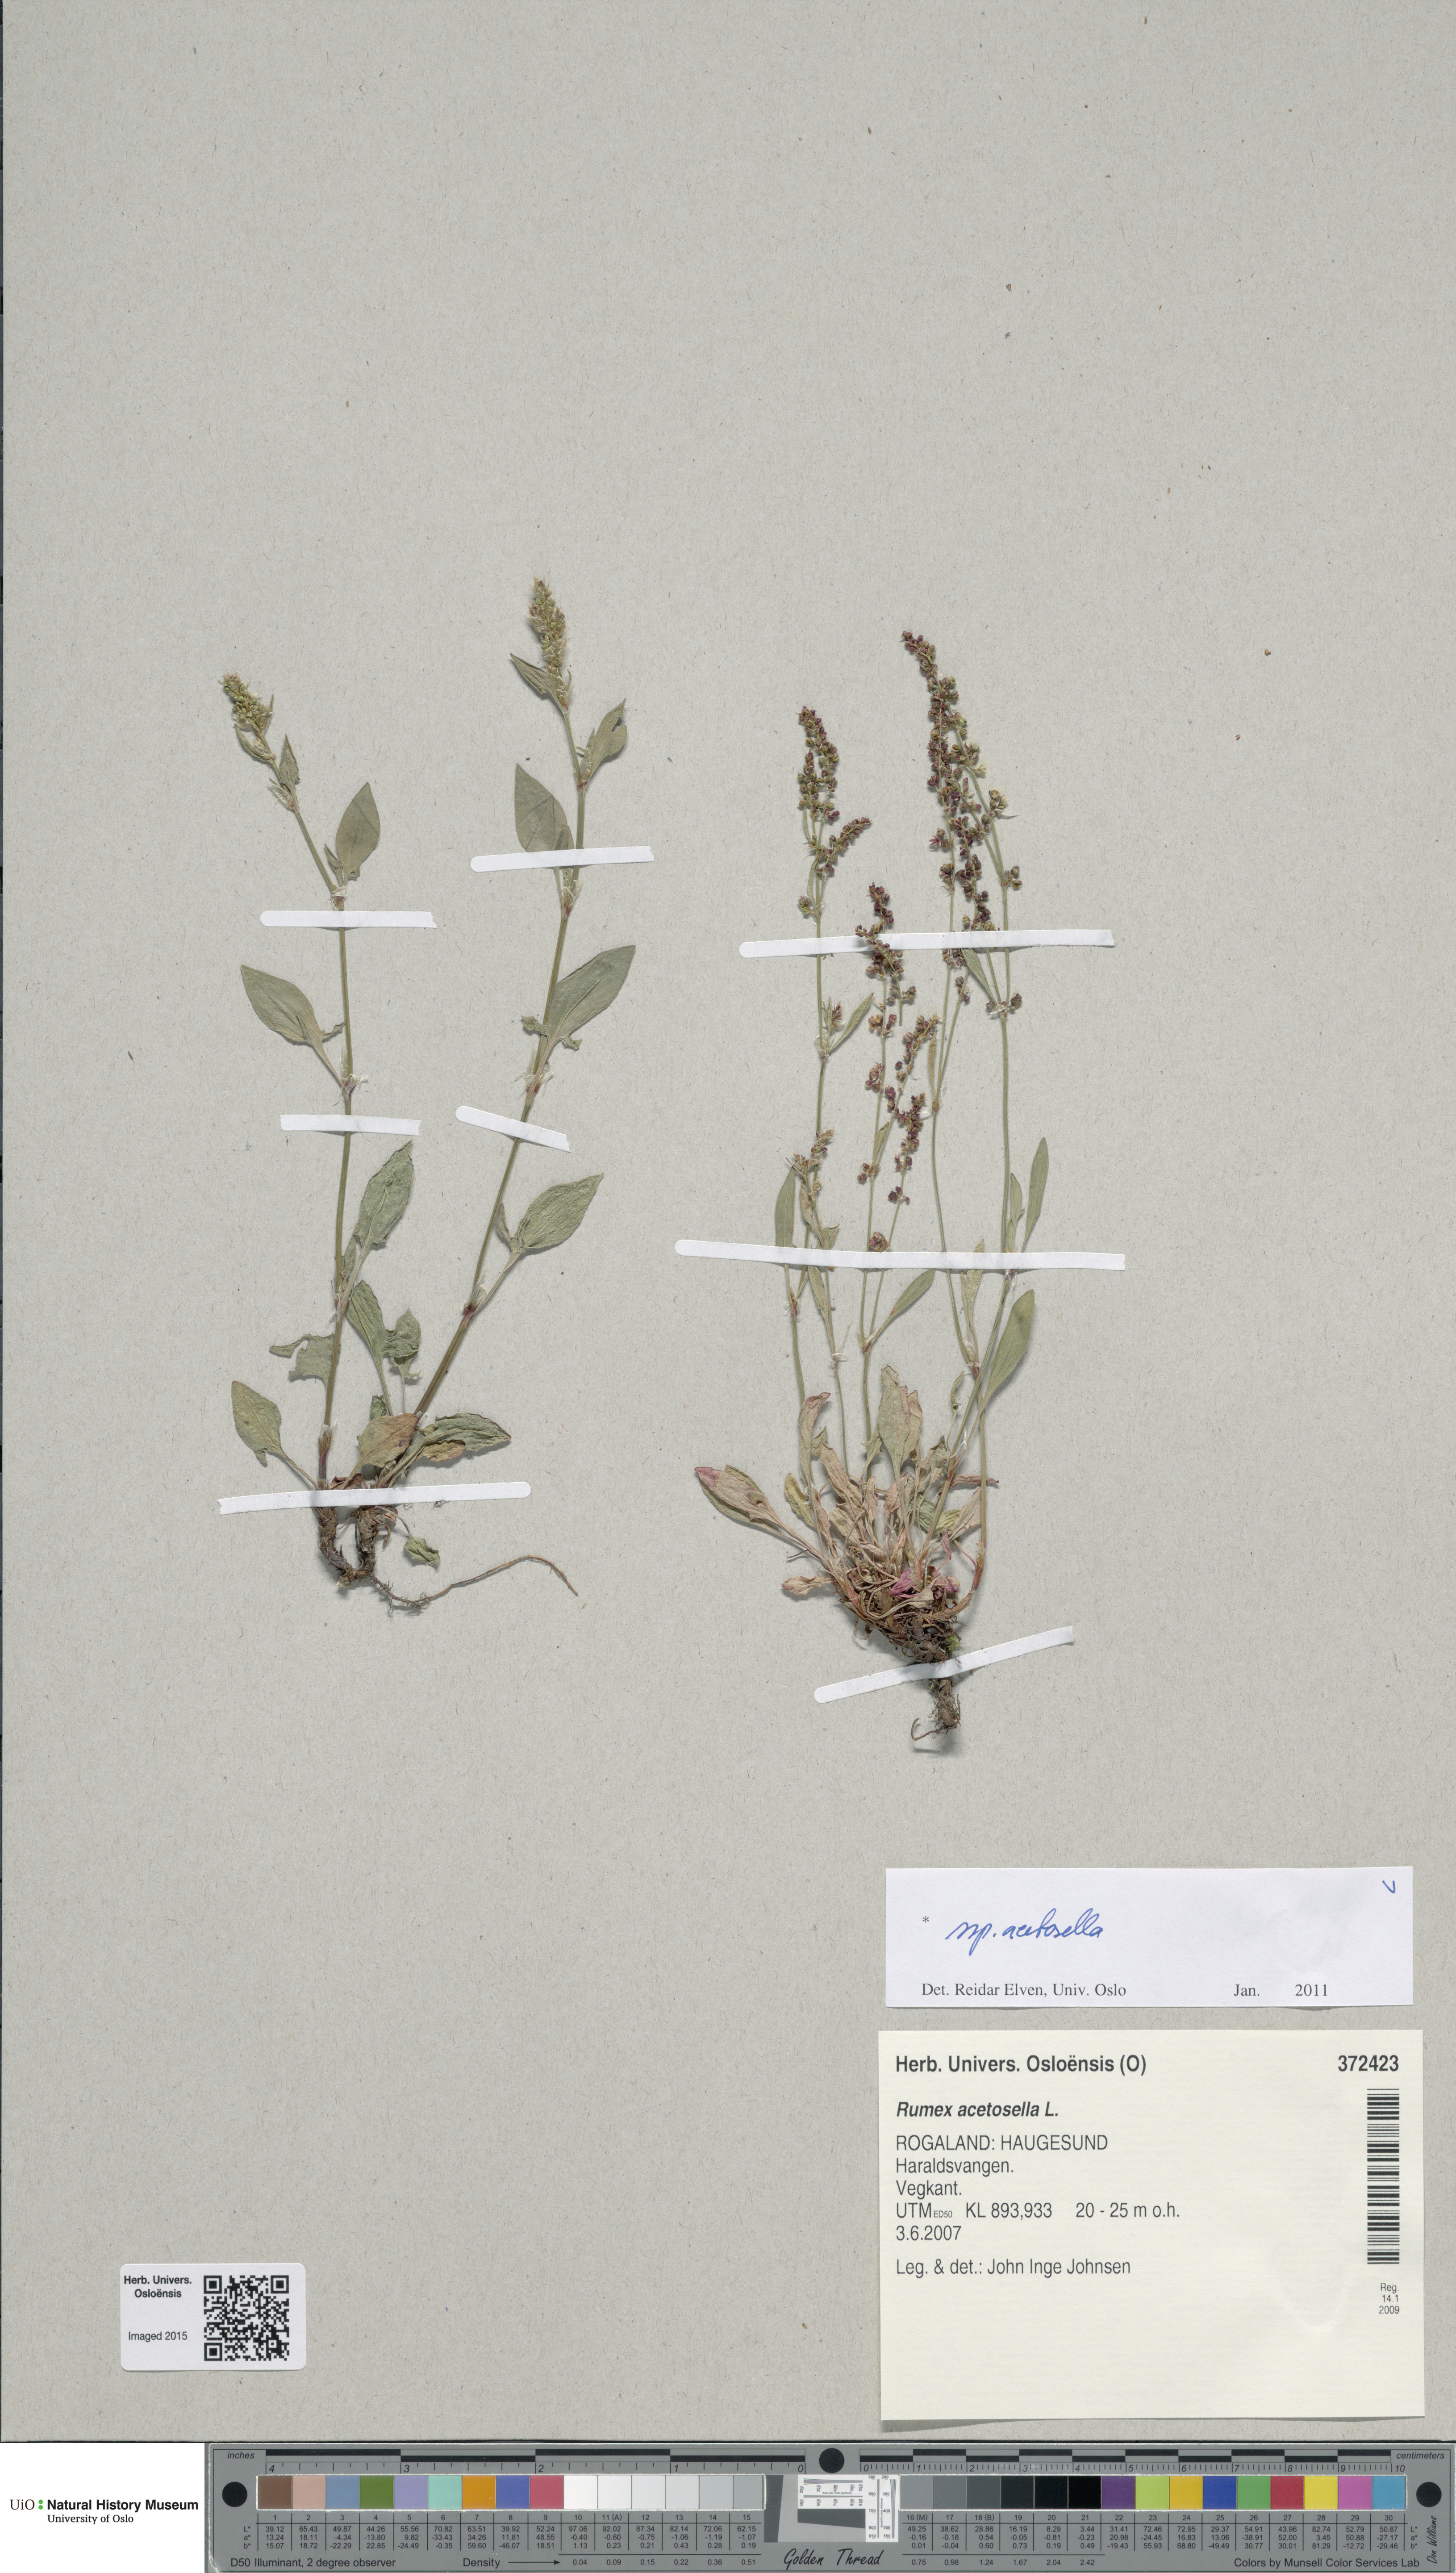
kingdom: Plantae
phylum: Tracheophyta
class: Magnoliopsida
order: Caryophyllales
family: Polygonaceae
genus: Rumex
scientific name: Rumex acetosella
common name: Common sheep sorrel
